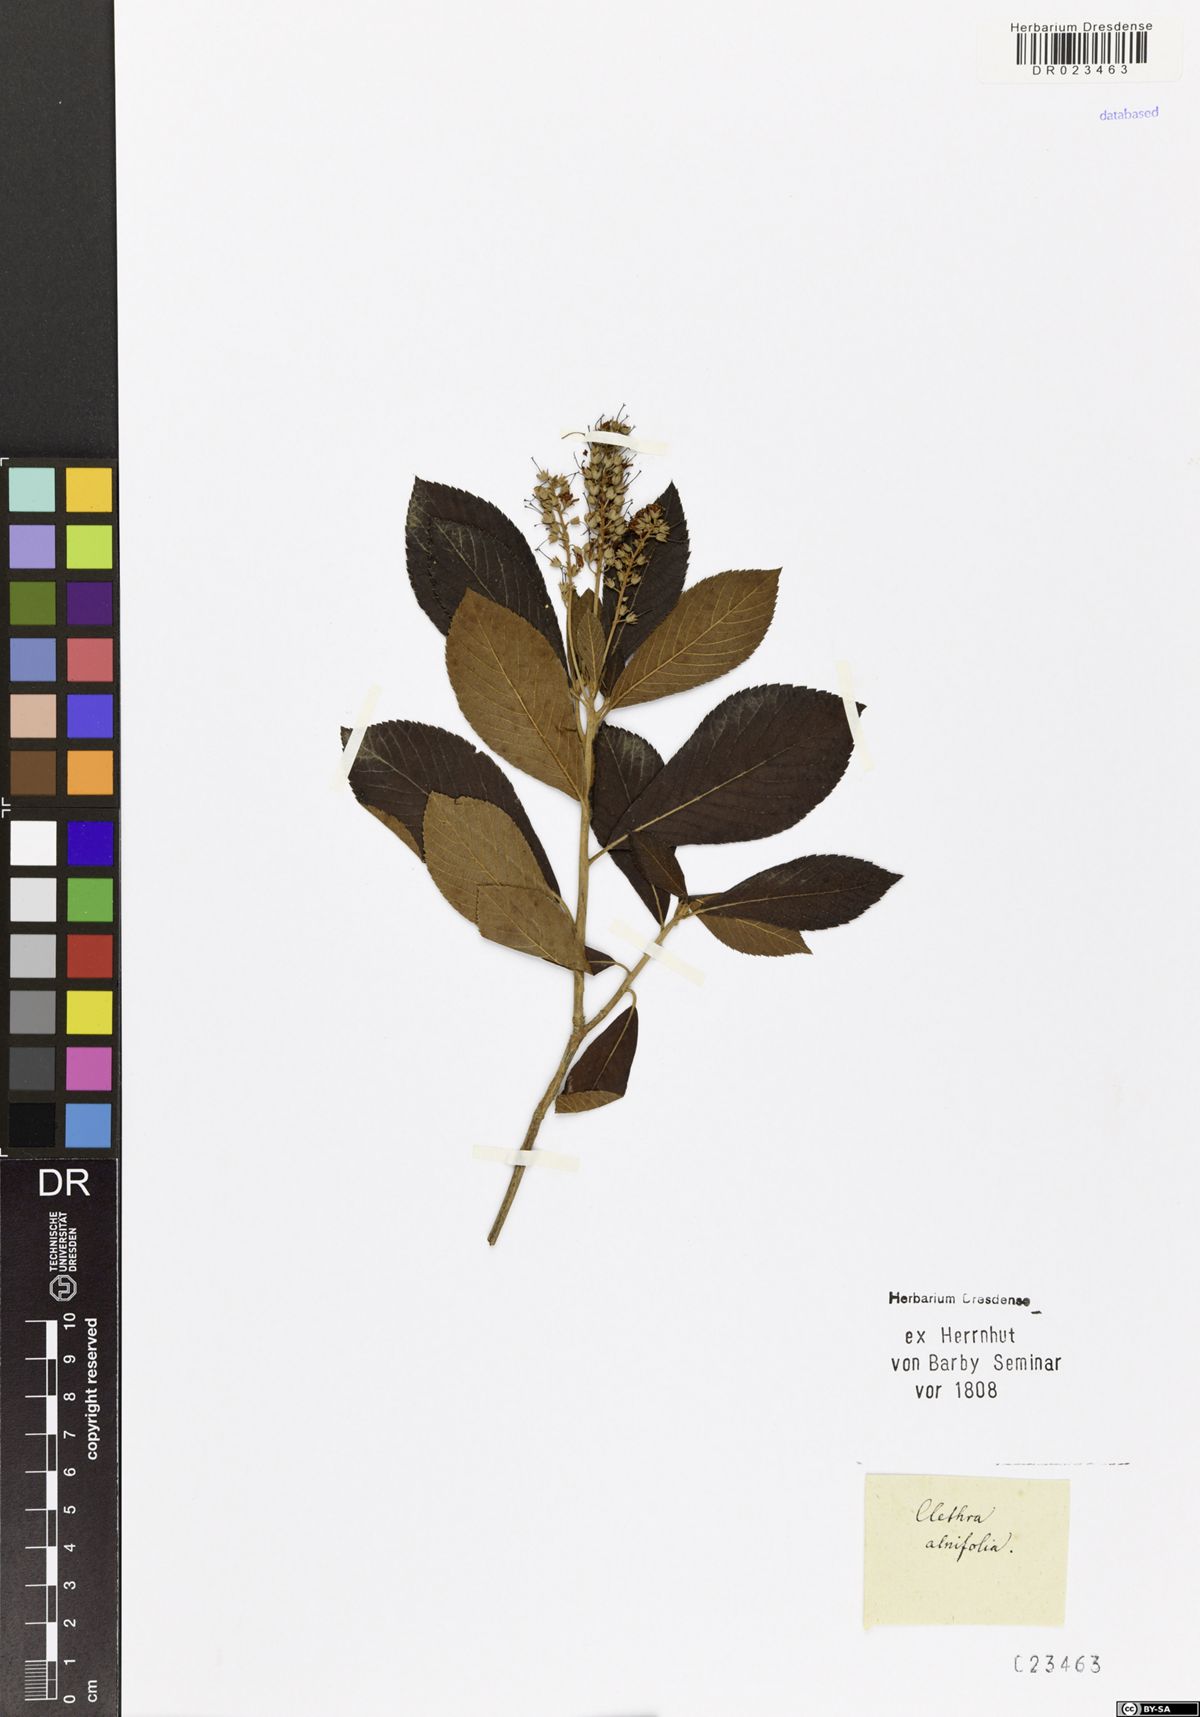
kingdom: Plantae
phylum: Tracheophyta
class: Magnoliopsida
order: Ericales
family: Clethraceae
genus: Clethra
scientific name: Clethra alnifolia
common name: Sweet pepperbush
